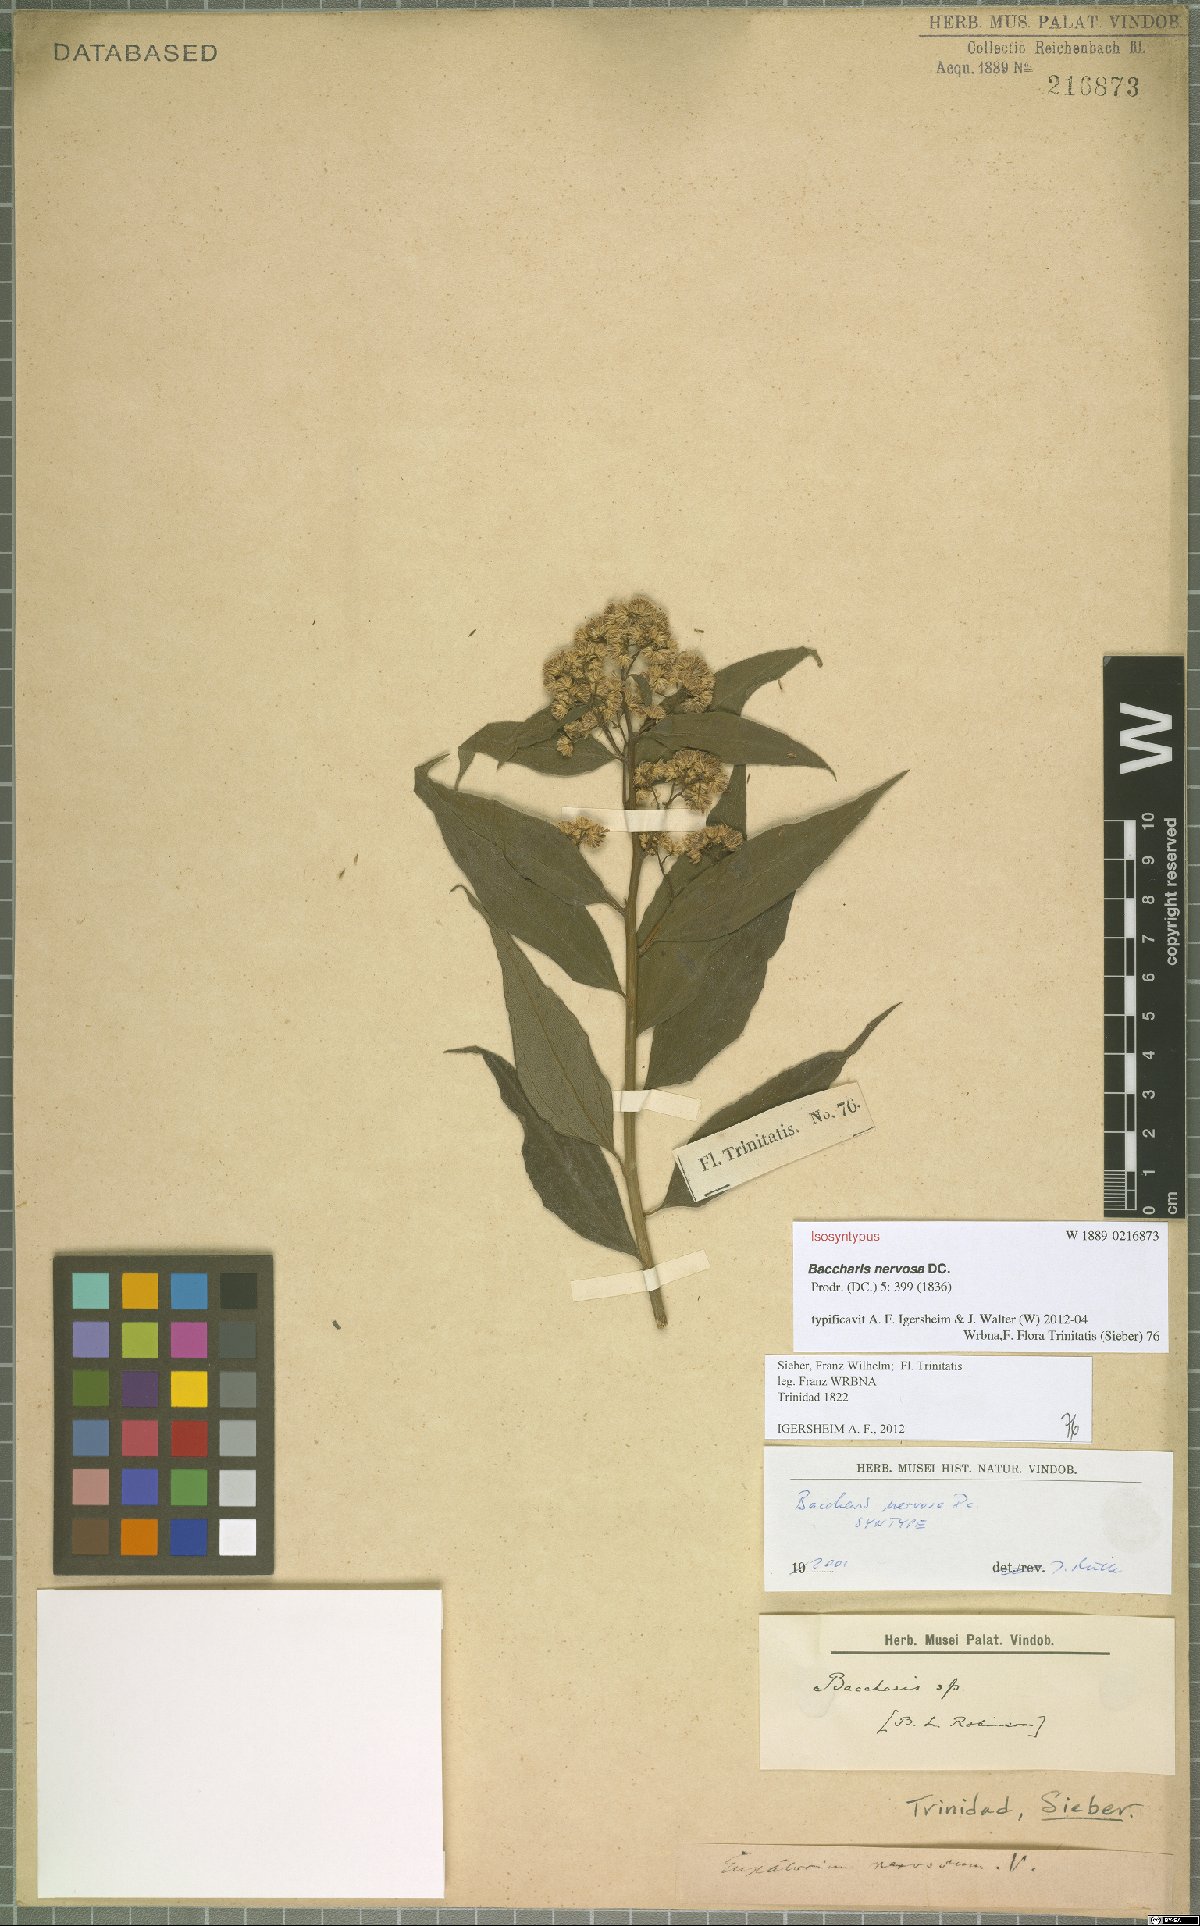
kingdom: Plantae
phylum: Tracheophyta
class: Magnoliopsida
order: Asterales
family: Asteraceae
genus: Baccharis
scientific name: Baccharis nervosa
